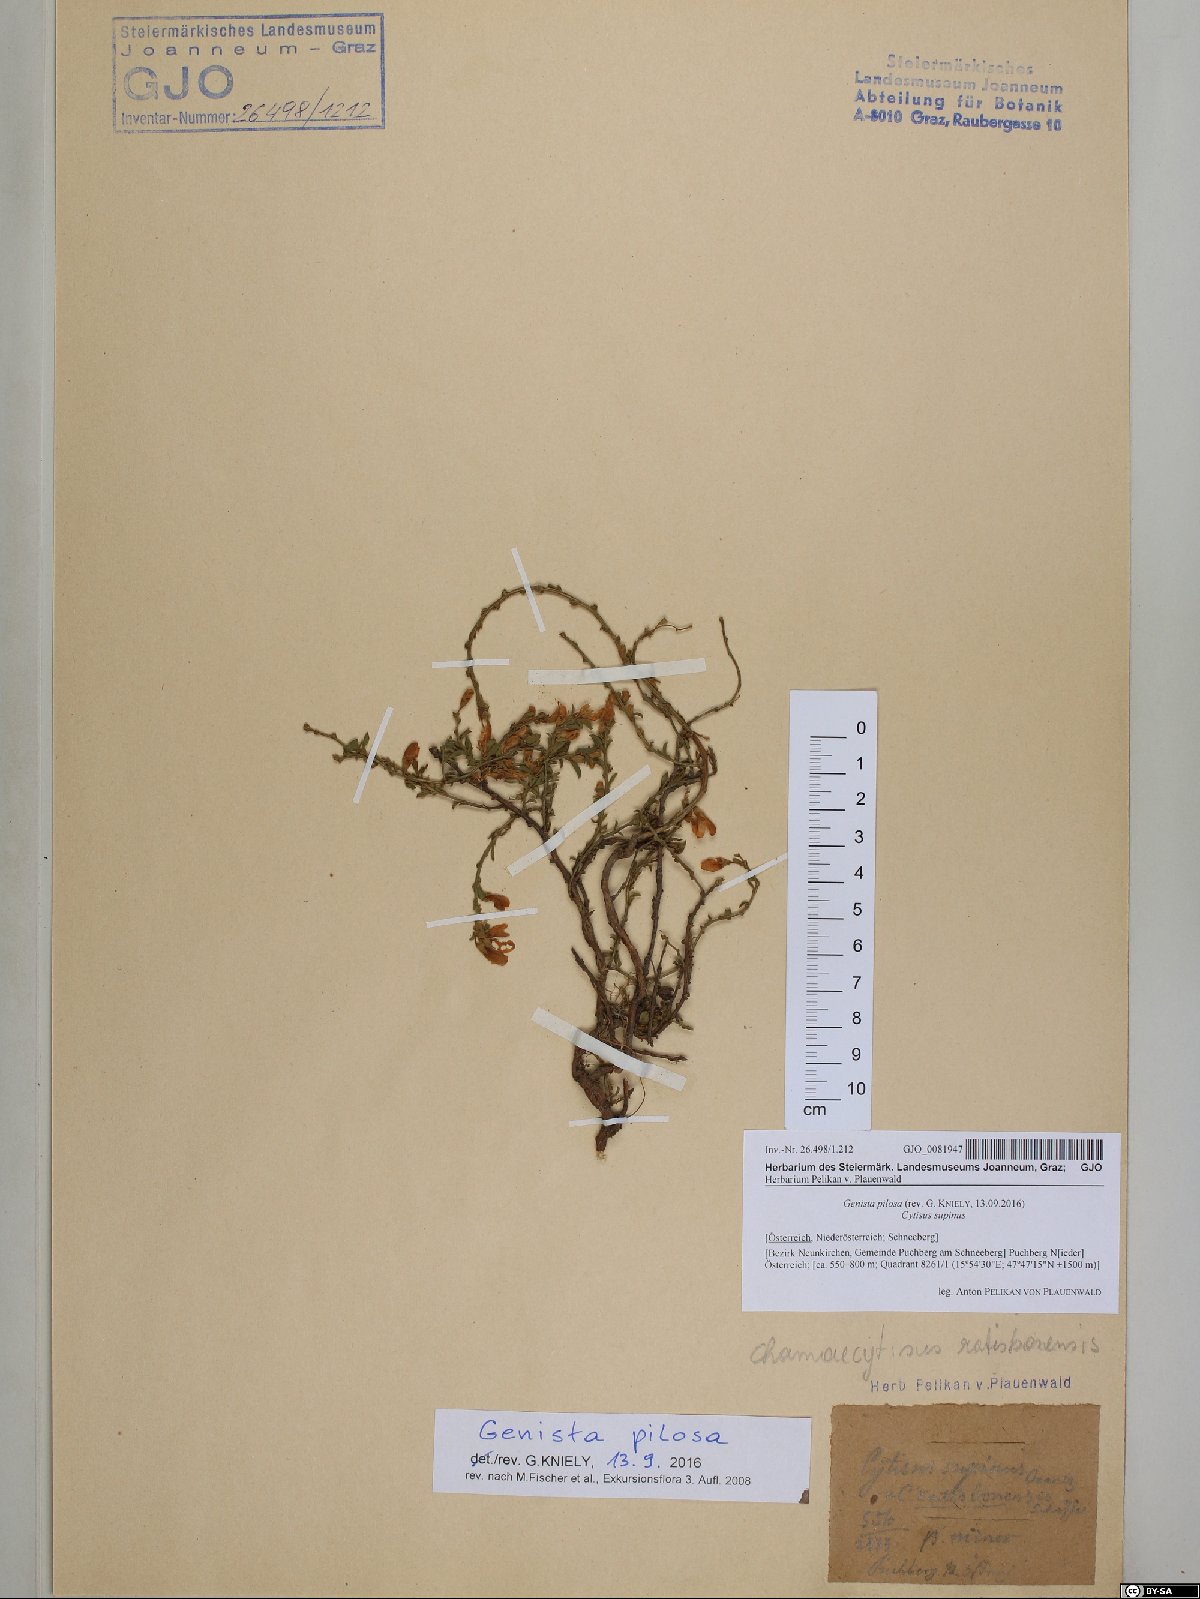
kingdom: Plantae
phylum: Tracheophyta
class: Magnoliopsida
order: Fabales
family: Fabaceae
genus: Genista
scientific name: Genista pilosa
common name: Hairy greenweed
